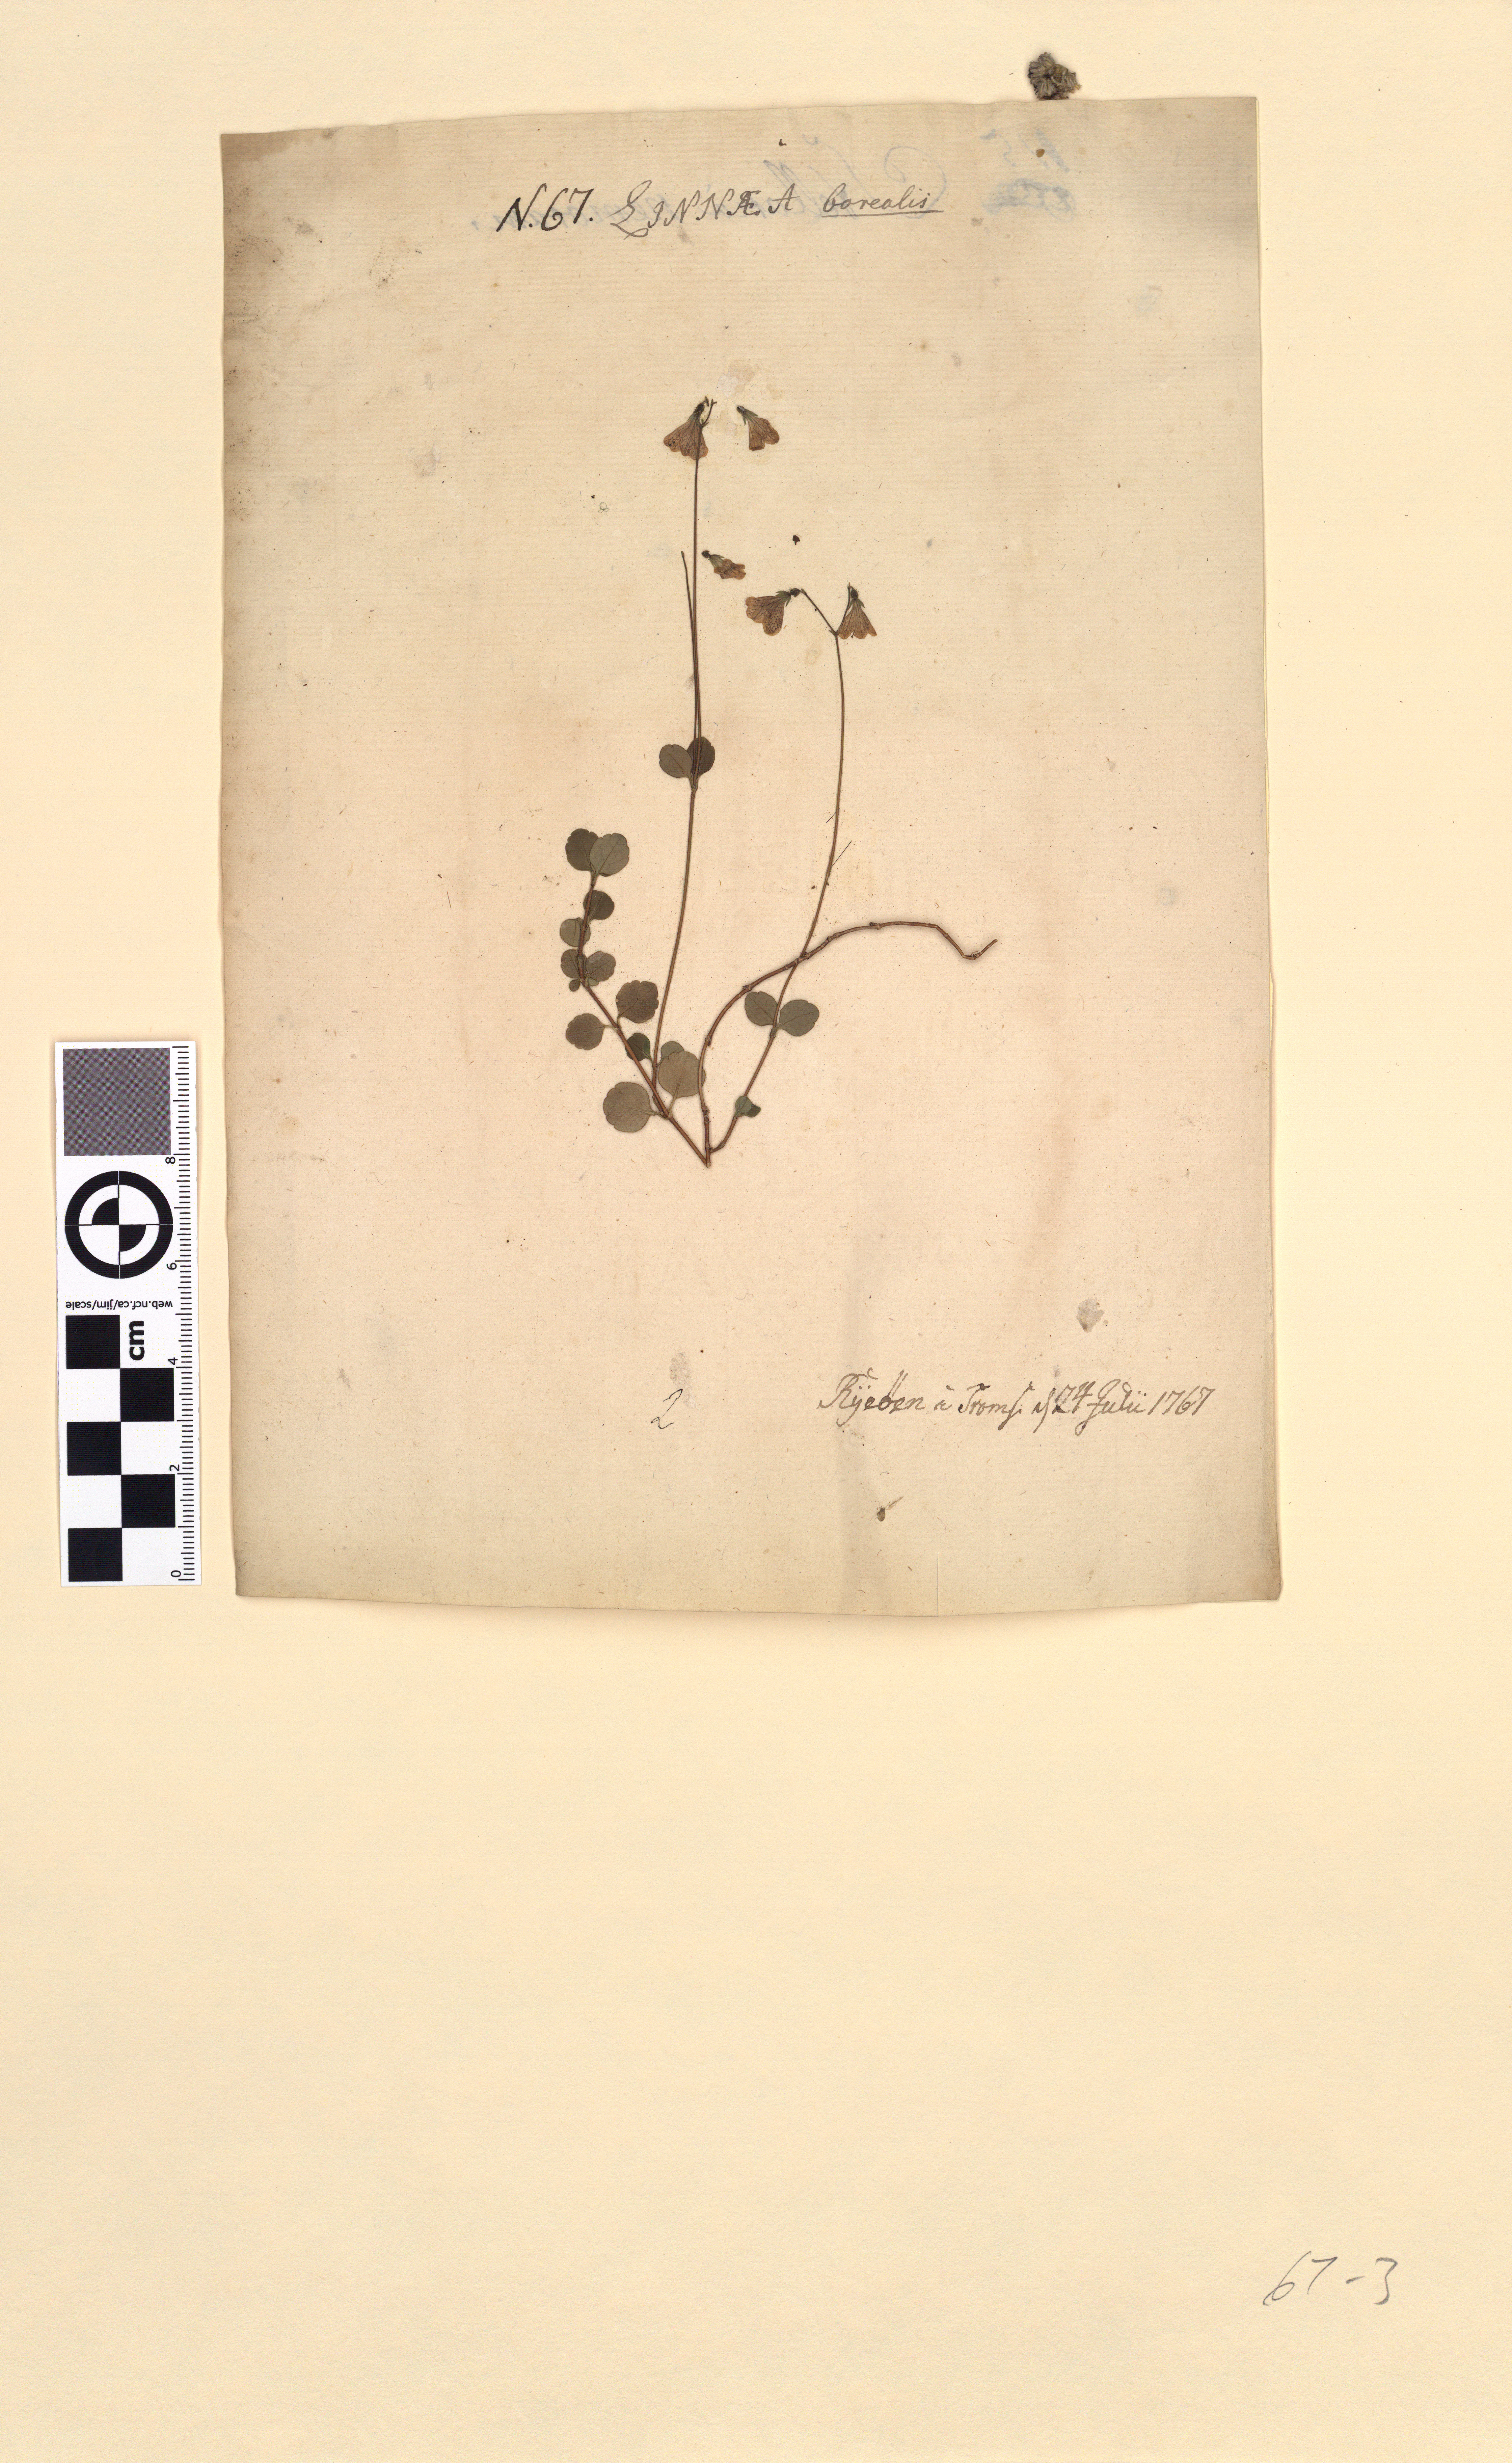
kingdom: Plantae
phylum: Tracheophyta
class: Magnoliopsida
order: Dipsacales
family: Caprifoliaceae
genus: Linnaea
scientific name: Linnaea borealis
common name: Twinflower
